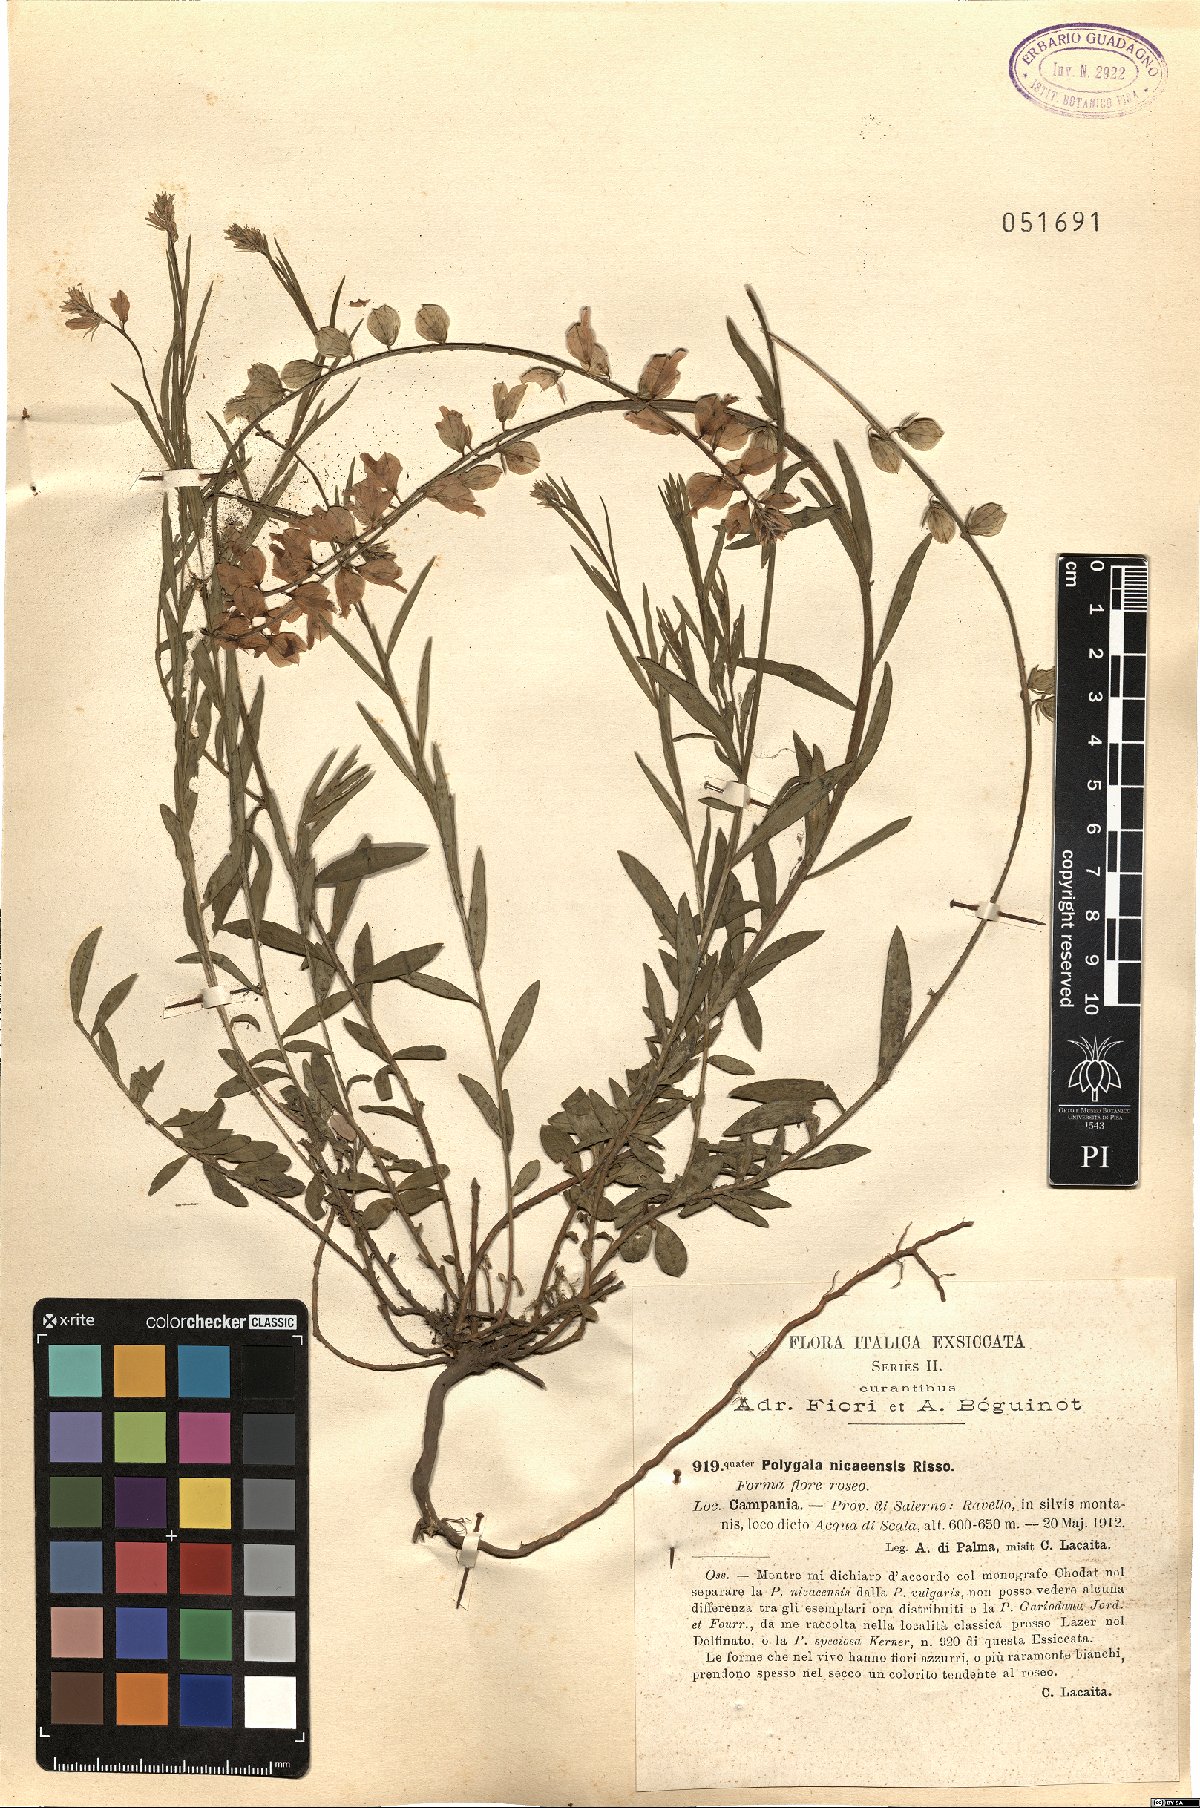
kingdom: Plantae
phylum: Tracheophyta
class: Magnoliopsida
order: Fabales
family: Polygalaceae
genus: Polygala
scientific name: Polygala nicaeensis
